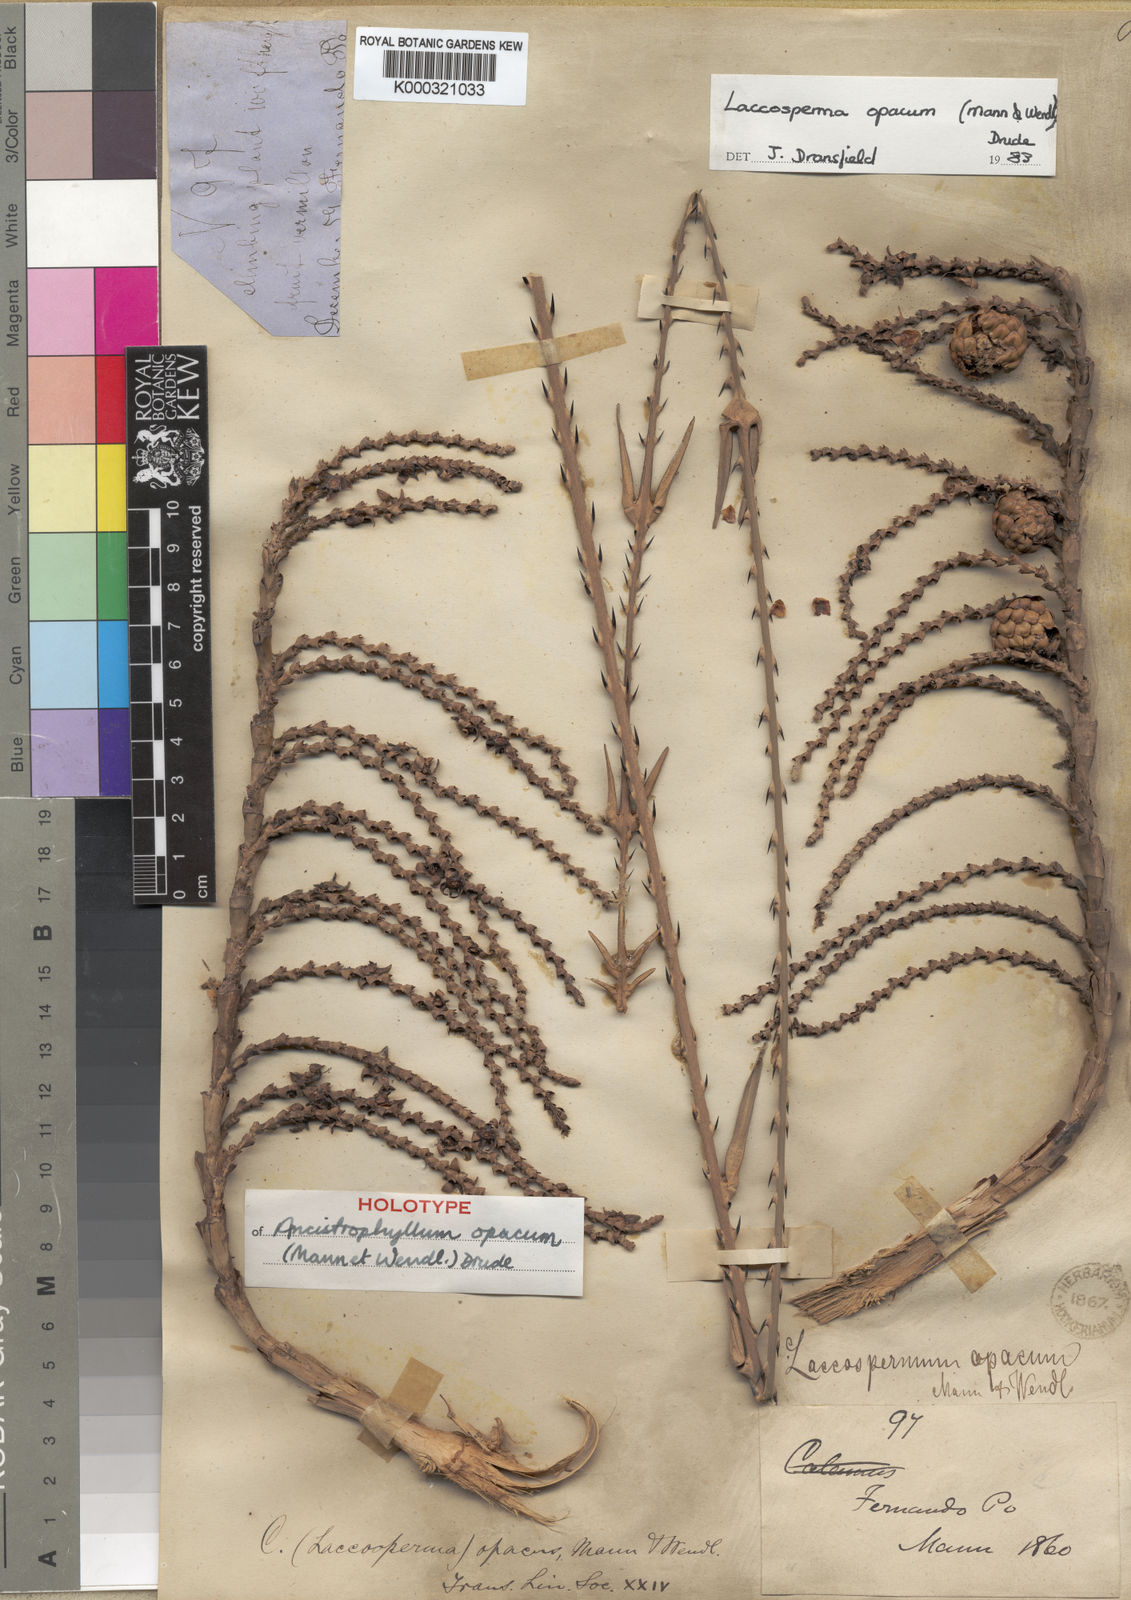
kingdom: Plantae
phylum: Tracheophyta
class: Liliopsida
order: Arecales
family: Arecaceae
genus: Laccosperma
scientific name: Laccosperma opacum
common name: Rattan
